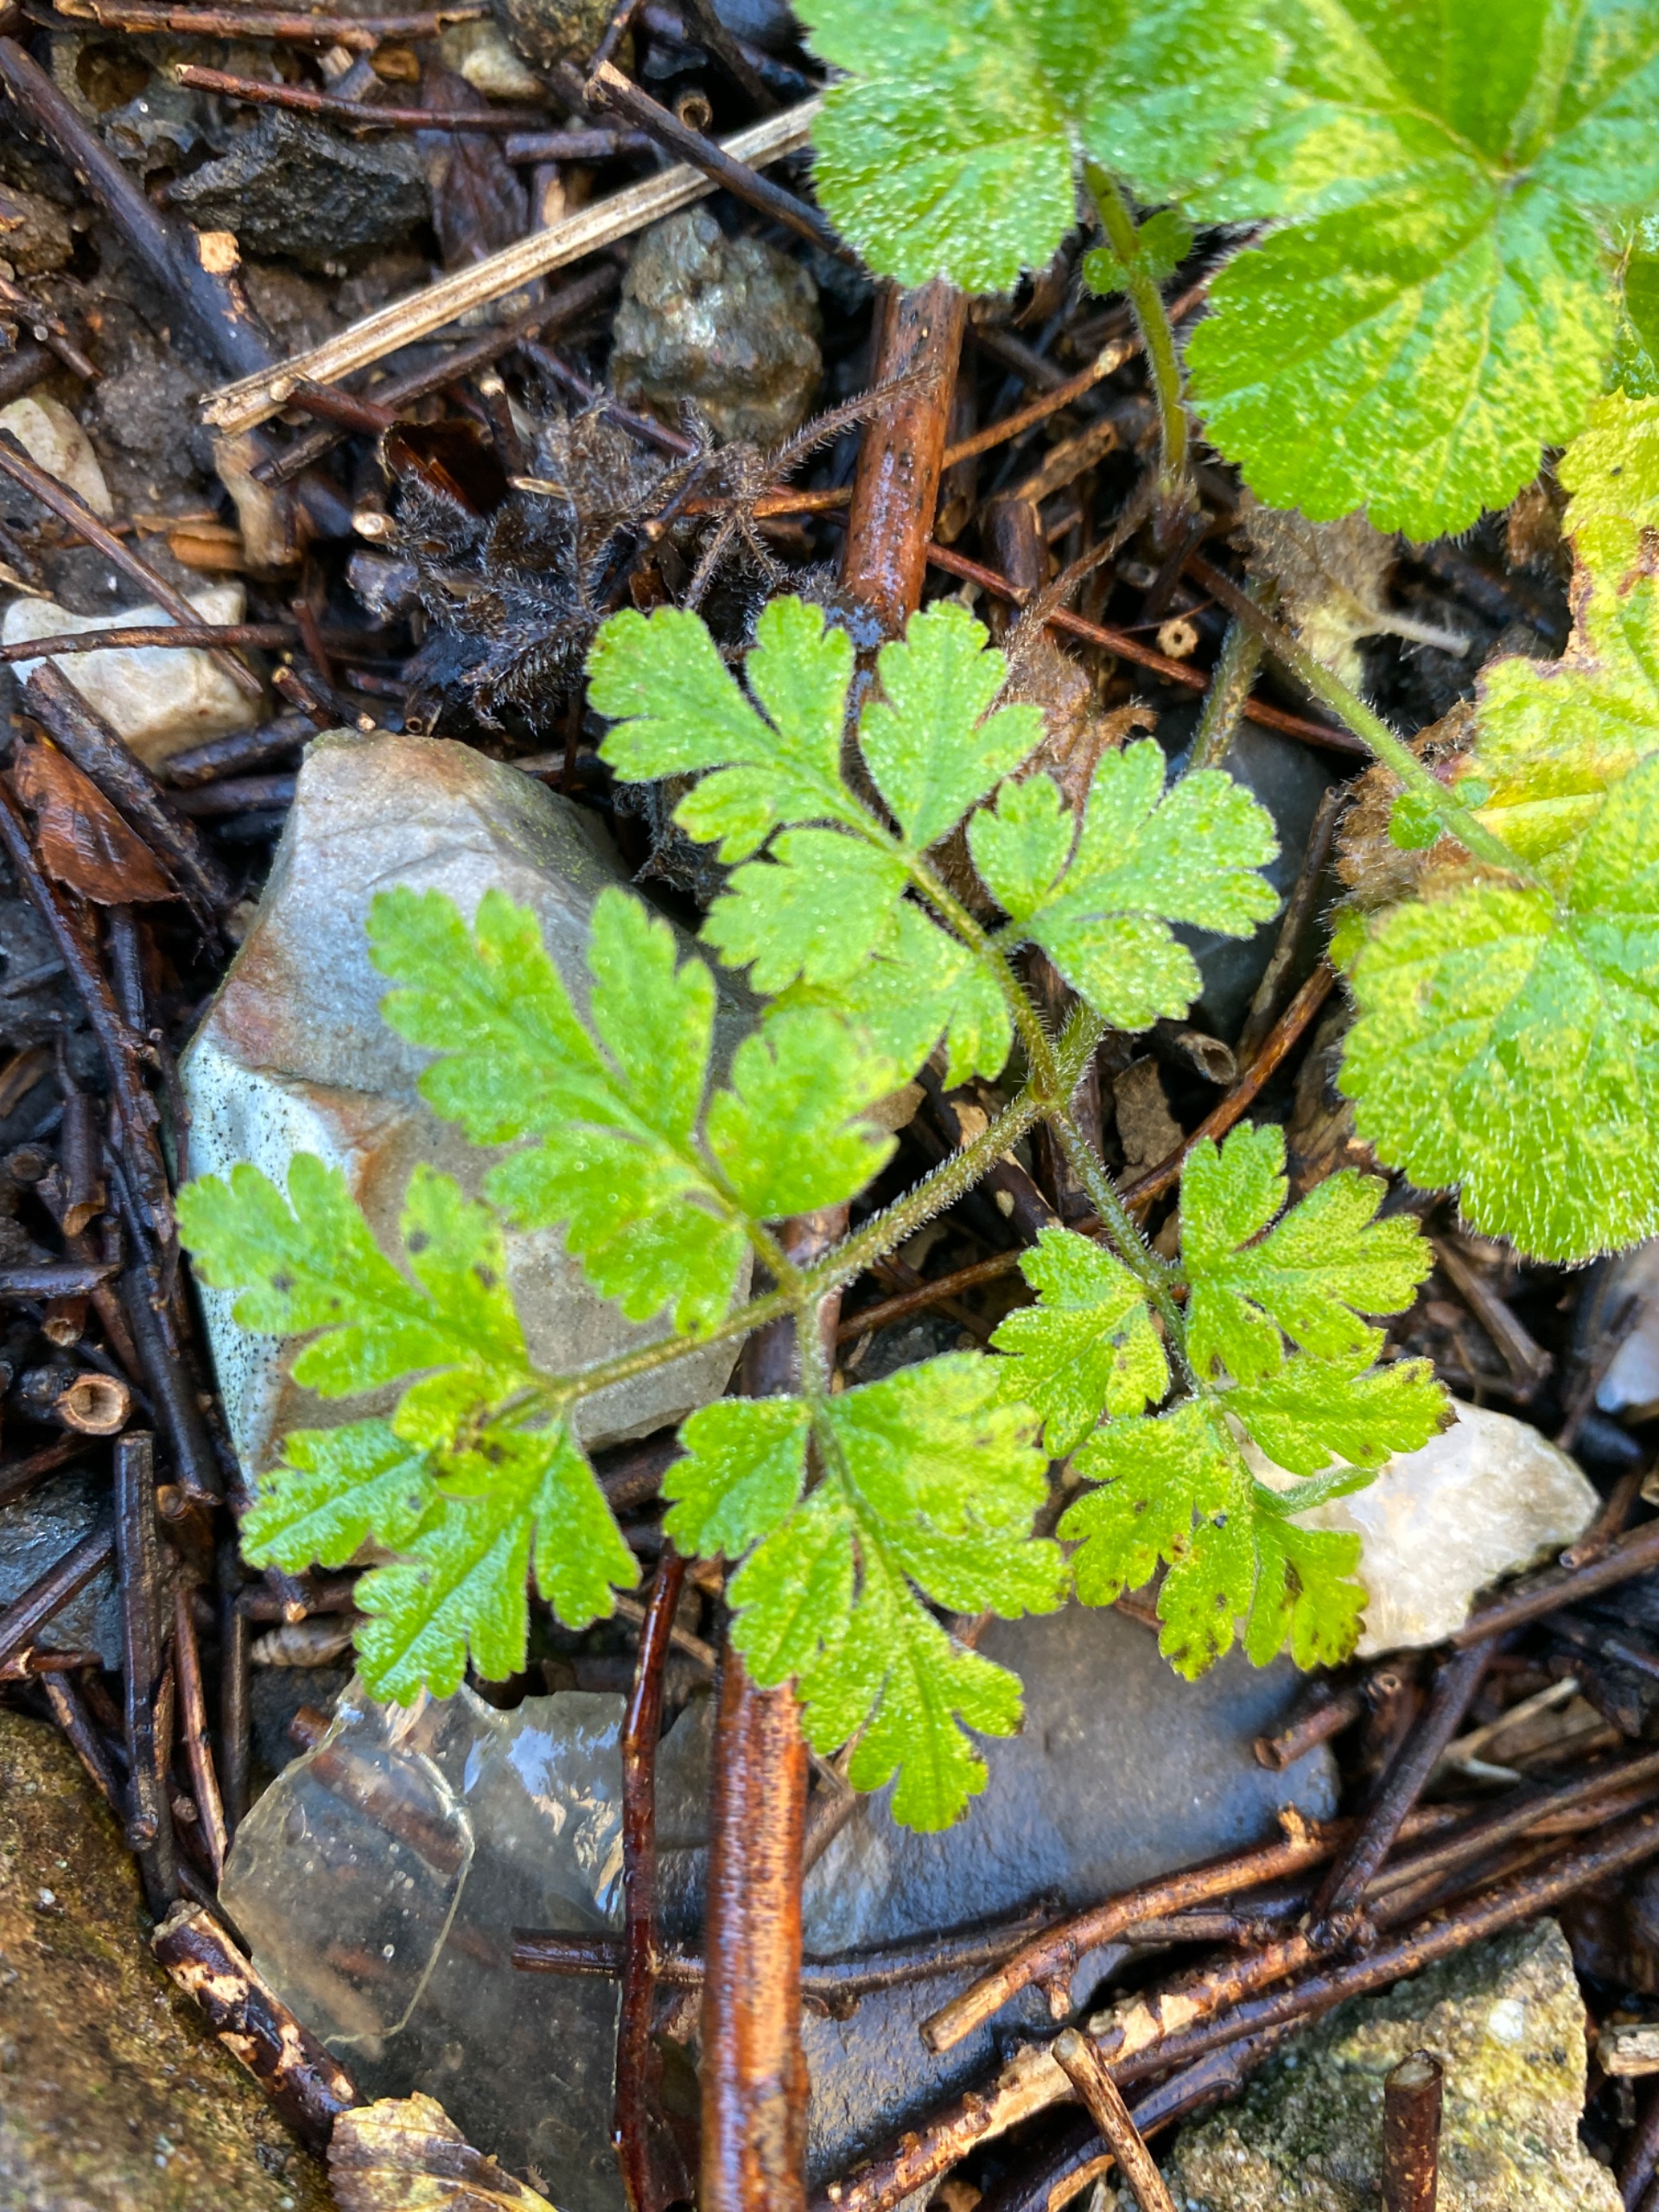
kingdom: Plantae
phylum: Tracheophyta
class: Magnoliopsida
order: Apiales
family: Apiaceae
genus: Chaerophyllum
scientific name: Chaerophyllum temulum
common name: Almindelig hulsvøb
